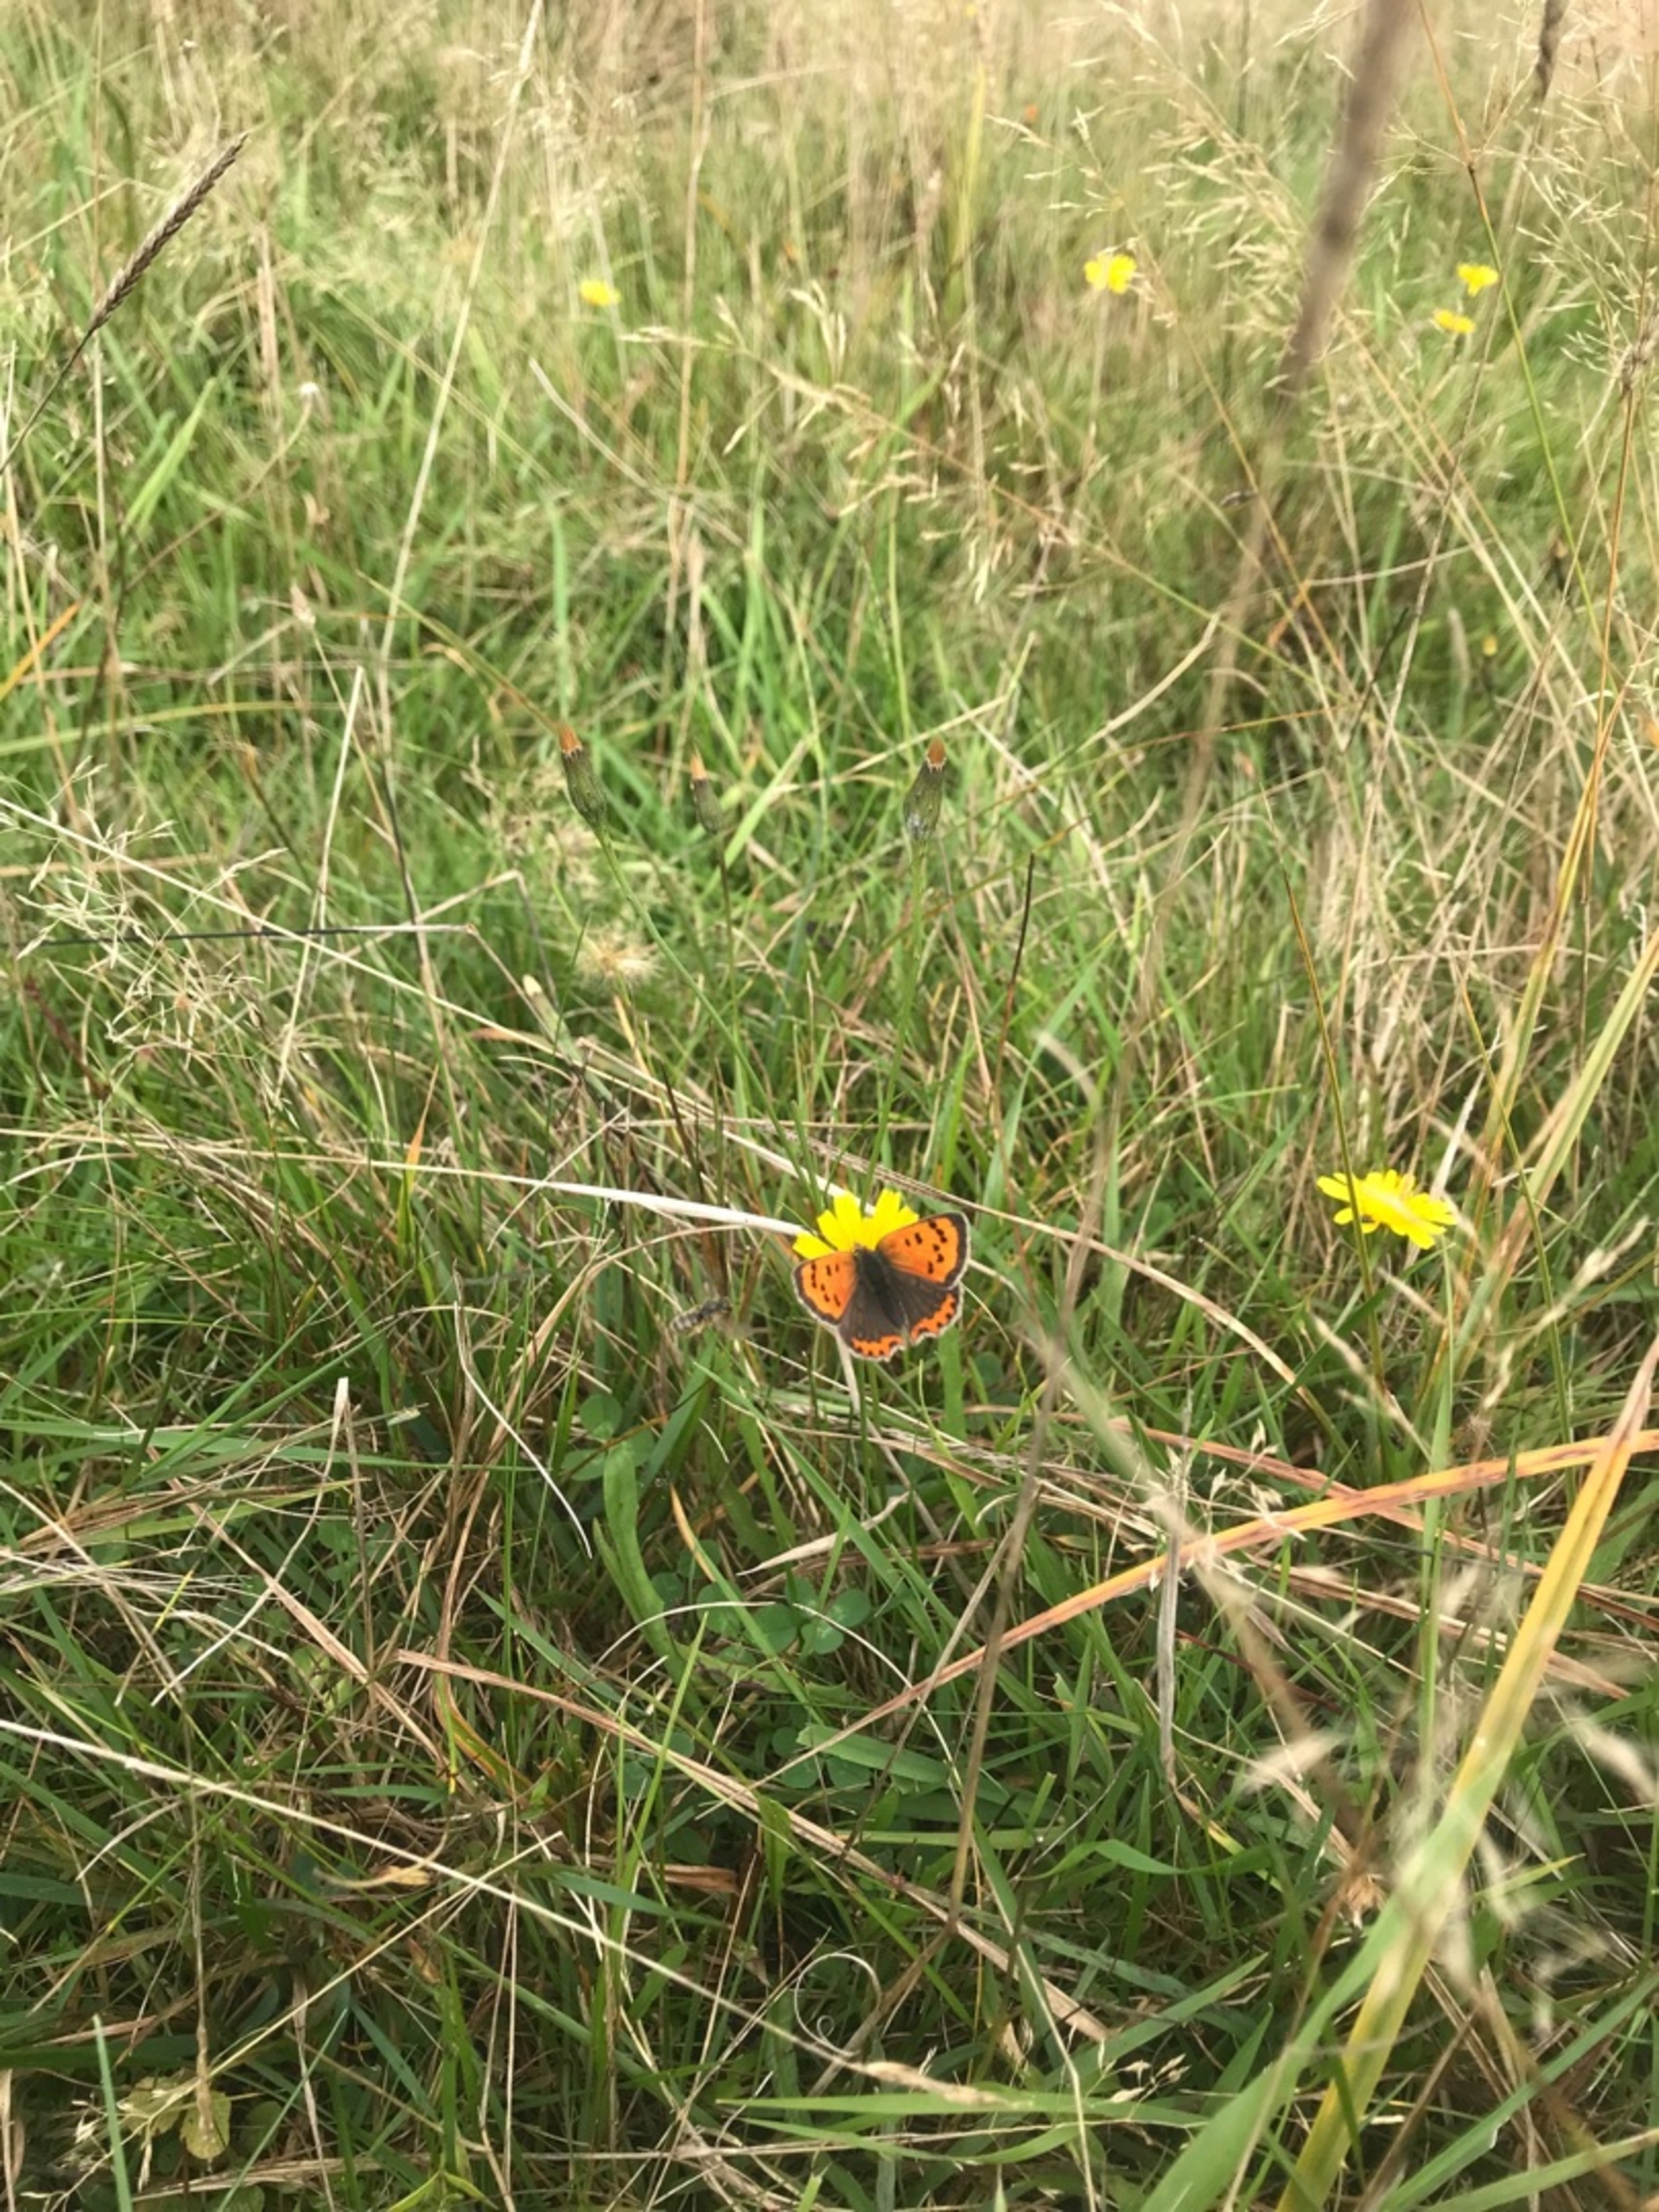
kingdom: Animalia
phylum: Arthropoda
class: Insecta
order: Lepidoptera
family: Lycaenidae
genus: Lycaena
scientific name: Lycaena phlaeas
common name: Lille ildfugl
